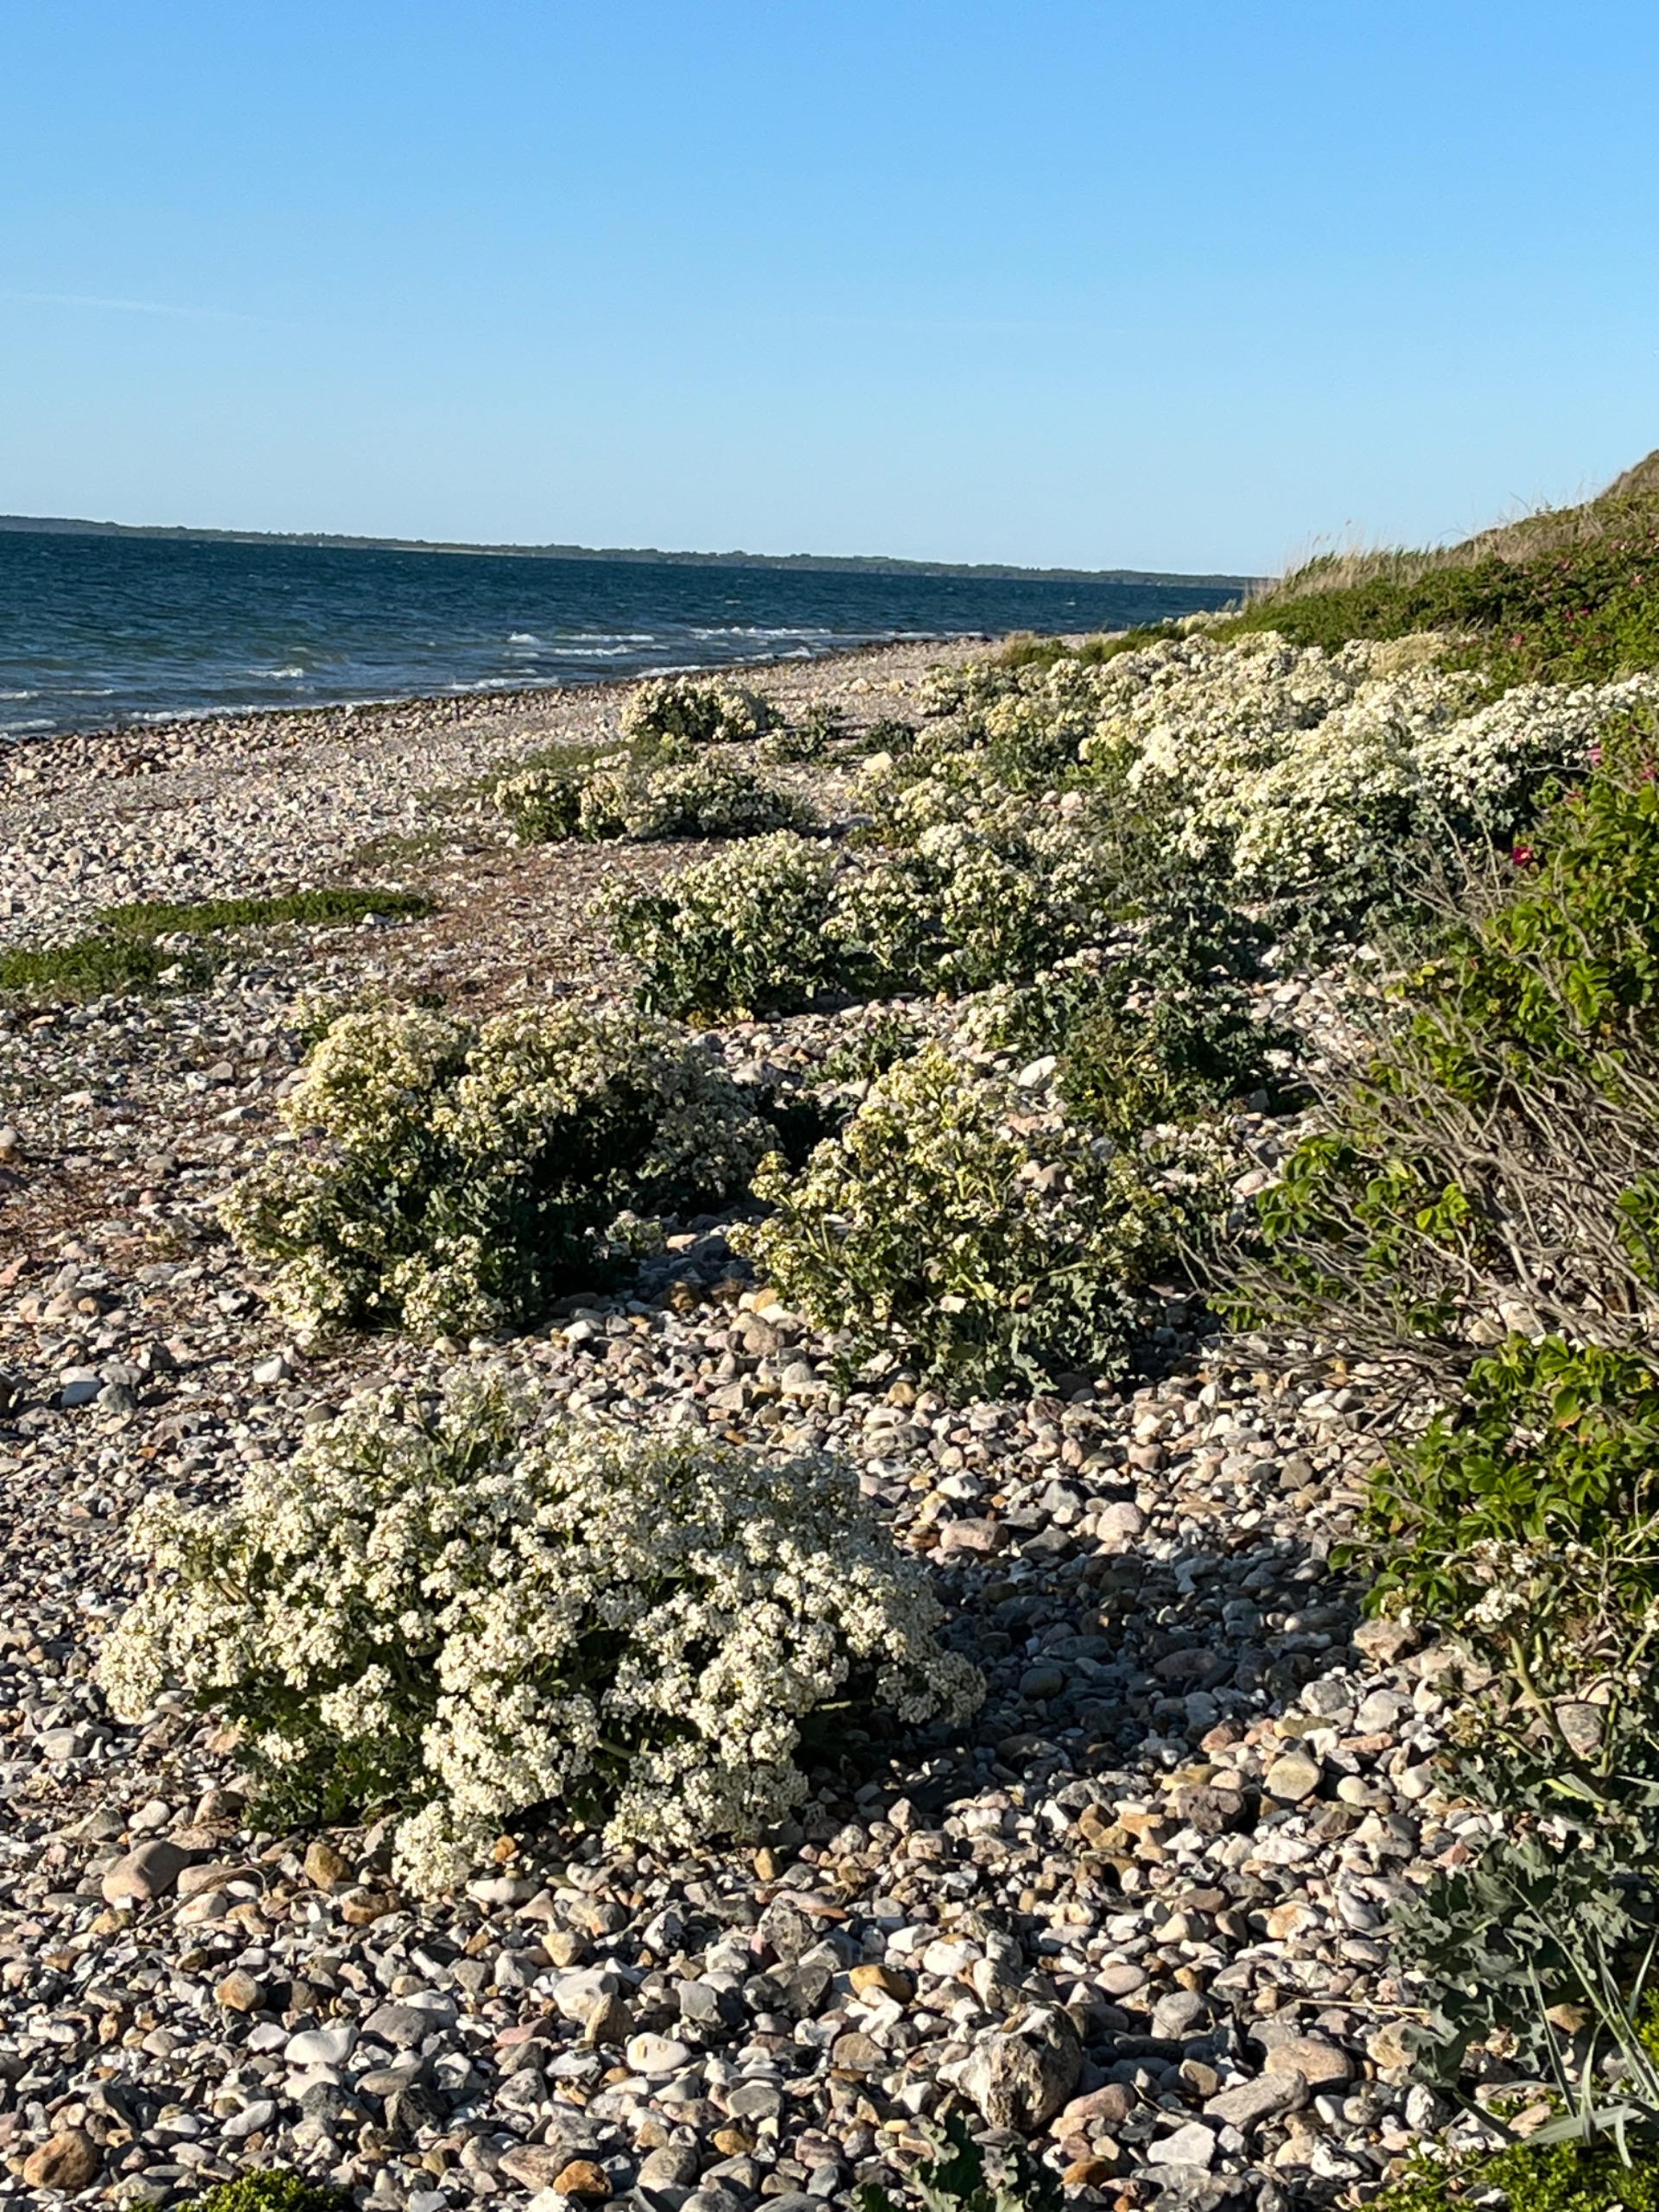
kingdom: Plantae
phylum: Tracheophyta
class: Magnoliopsida
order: Brassicales
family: Brassicaceae
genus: Crambe
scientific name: Crambe maritima
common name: Strandkål
